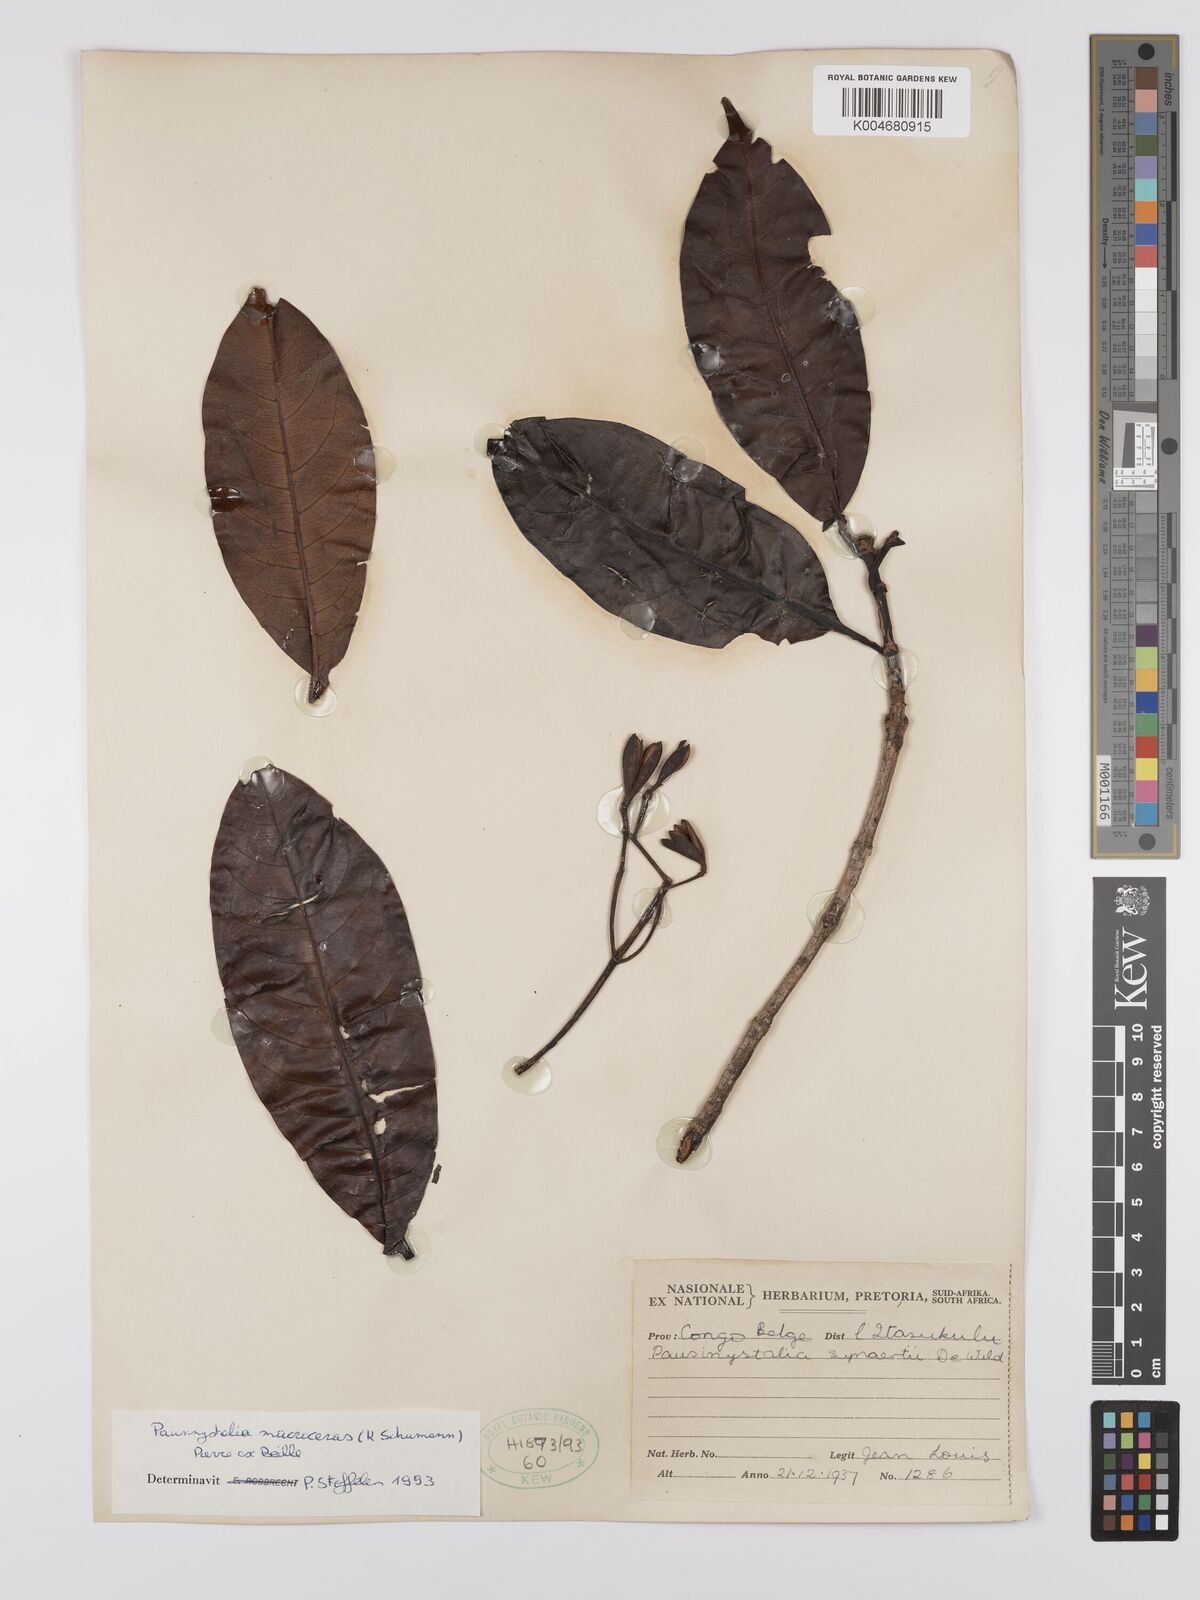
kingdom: Plantae
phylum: Tracheophyta
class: Magnoliopsida
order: Gentianales
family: Rubiaceae
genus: Corynanthe
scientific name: Corynanthe macroceras
